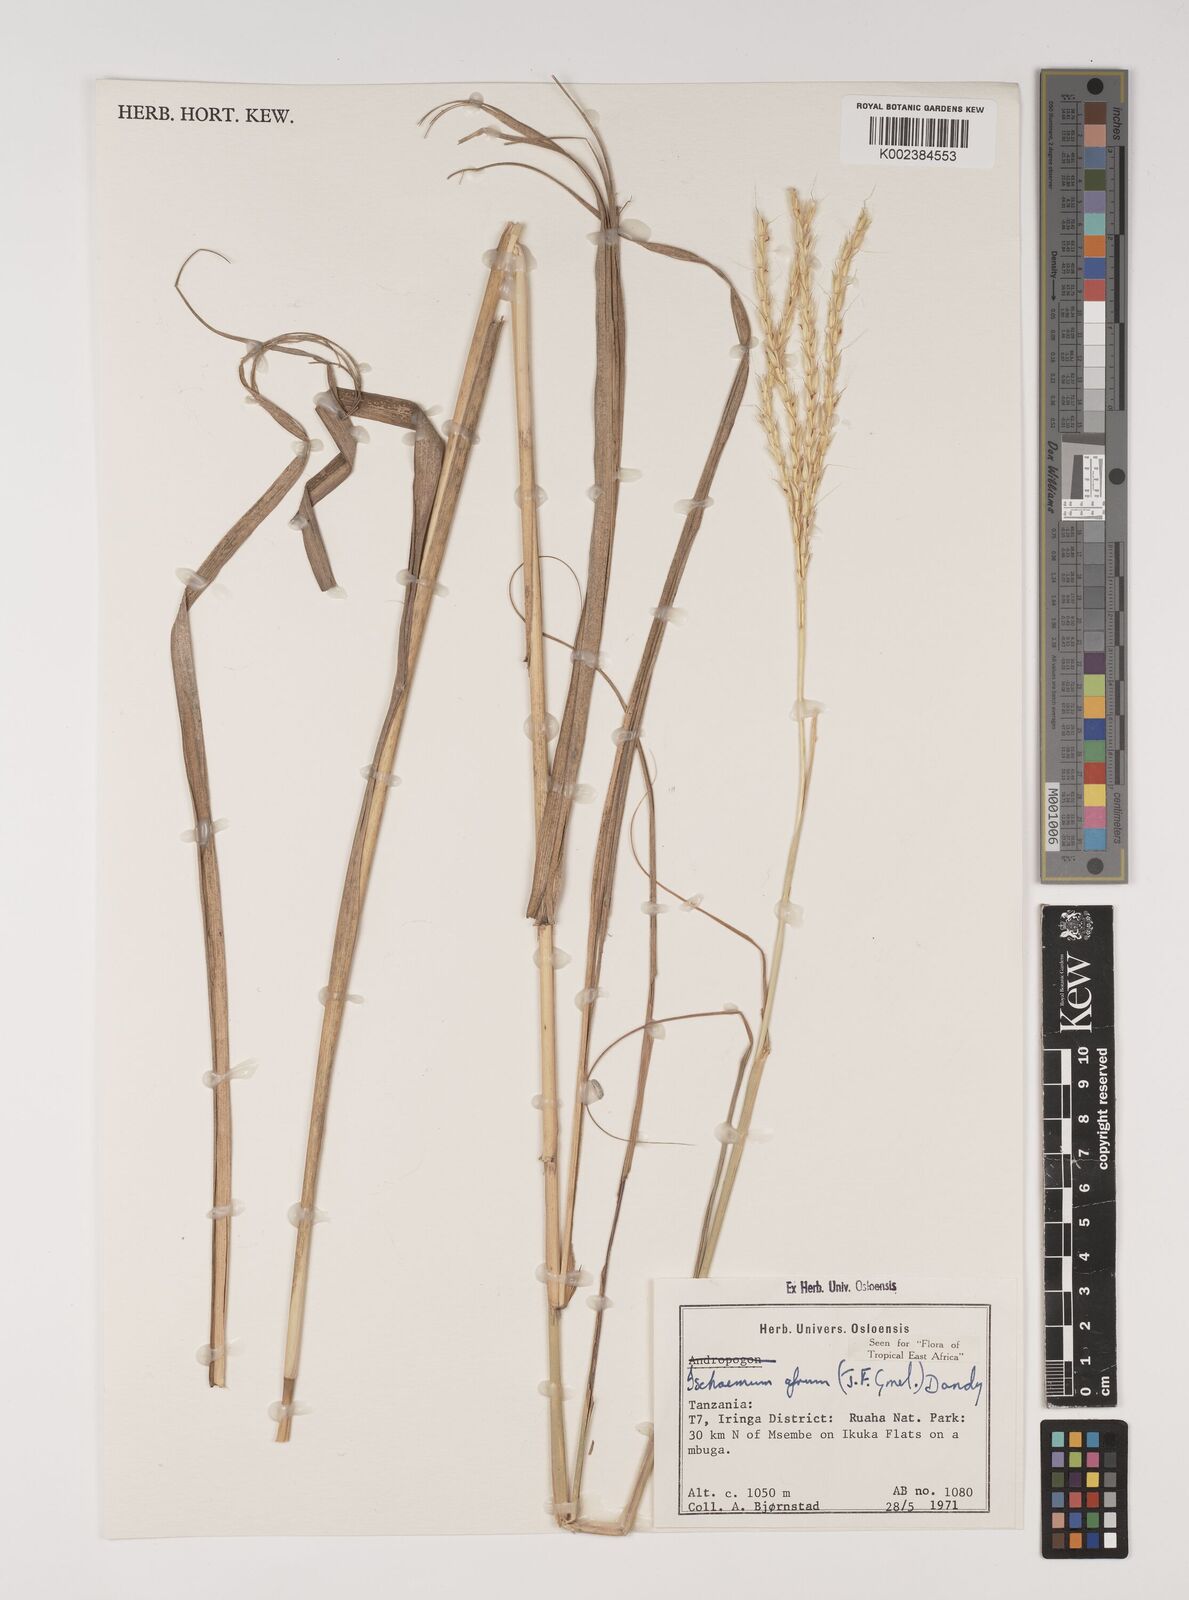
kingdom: Plantae
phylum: Tracheophyta
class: Liliopsida
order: Poales
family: Poaceae
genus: Ischaemum
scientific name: Ischaemum afrum
